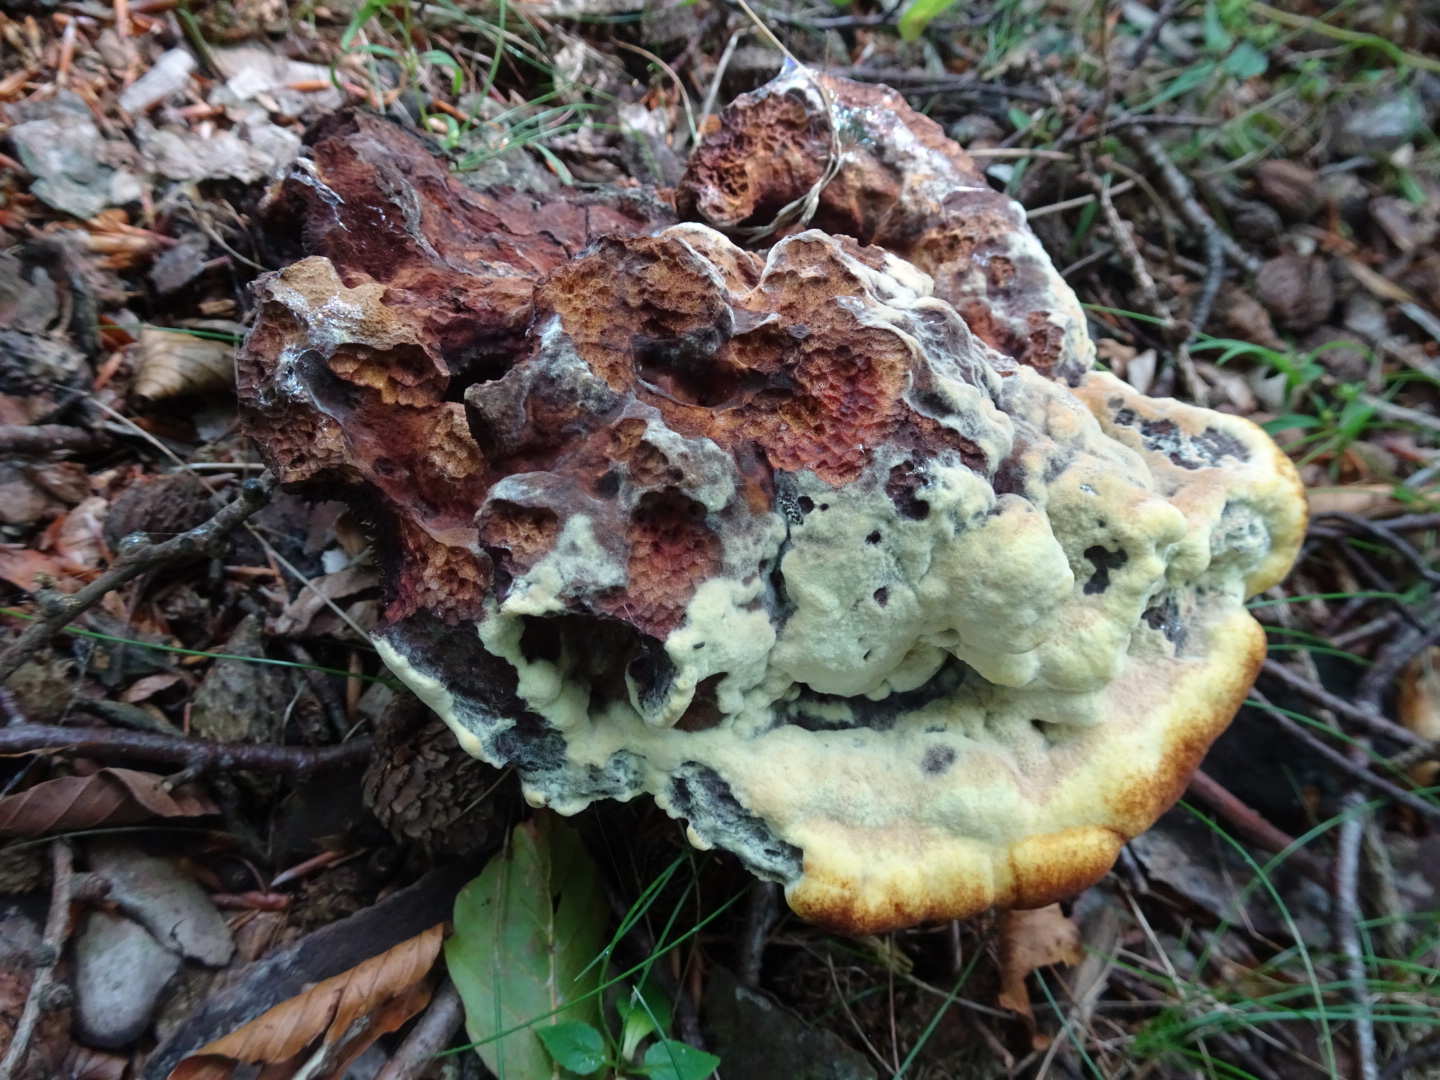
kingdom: Fungi
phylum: Basidiomycota
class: Agaricomycetes
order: Polyporales
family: Laetiporaceae
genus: Phaeolus
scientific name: Phaeolus schweinitzii
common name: brunporesvamp
